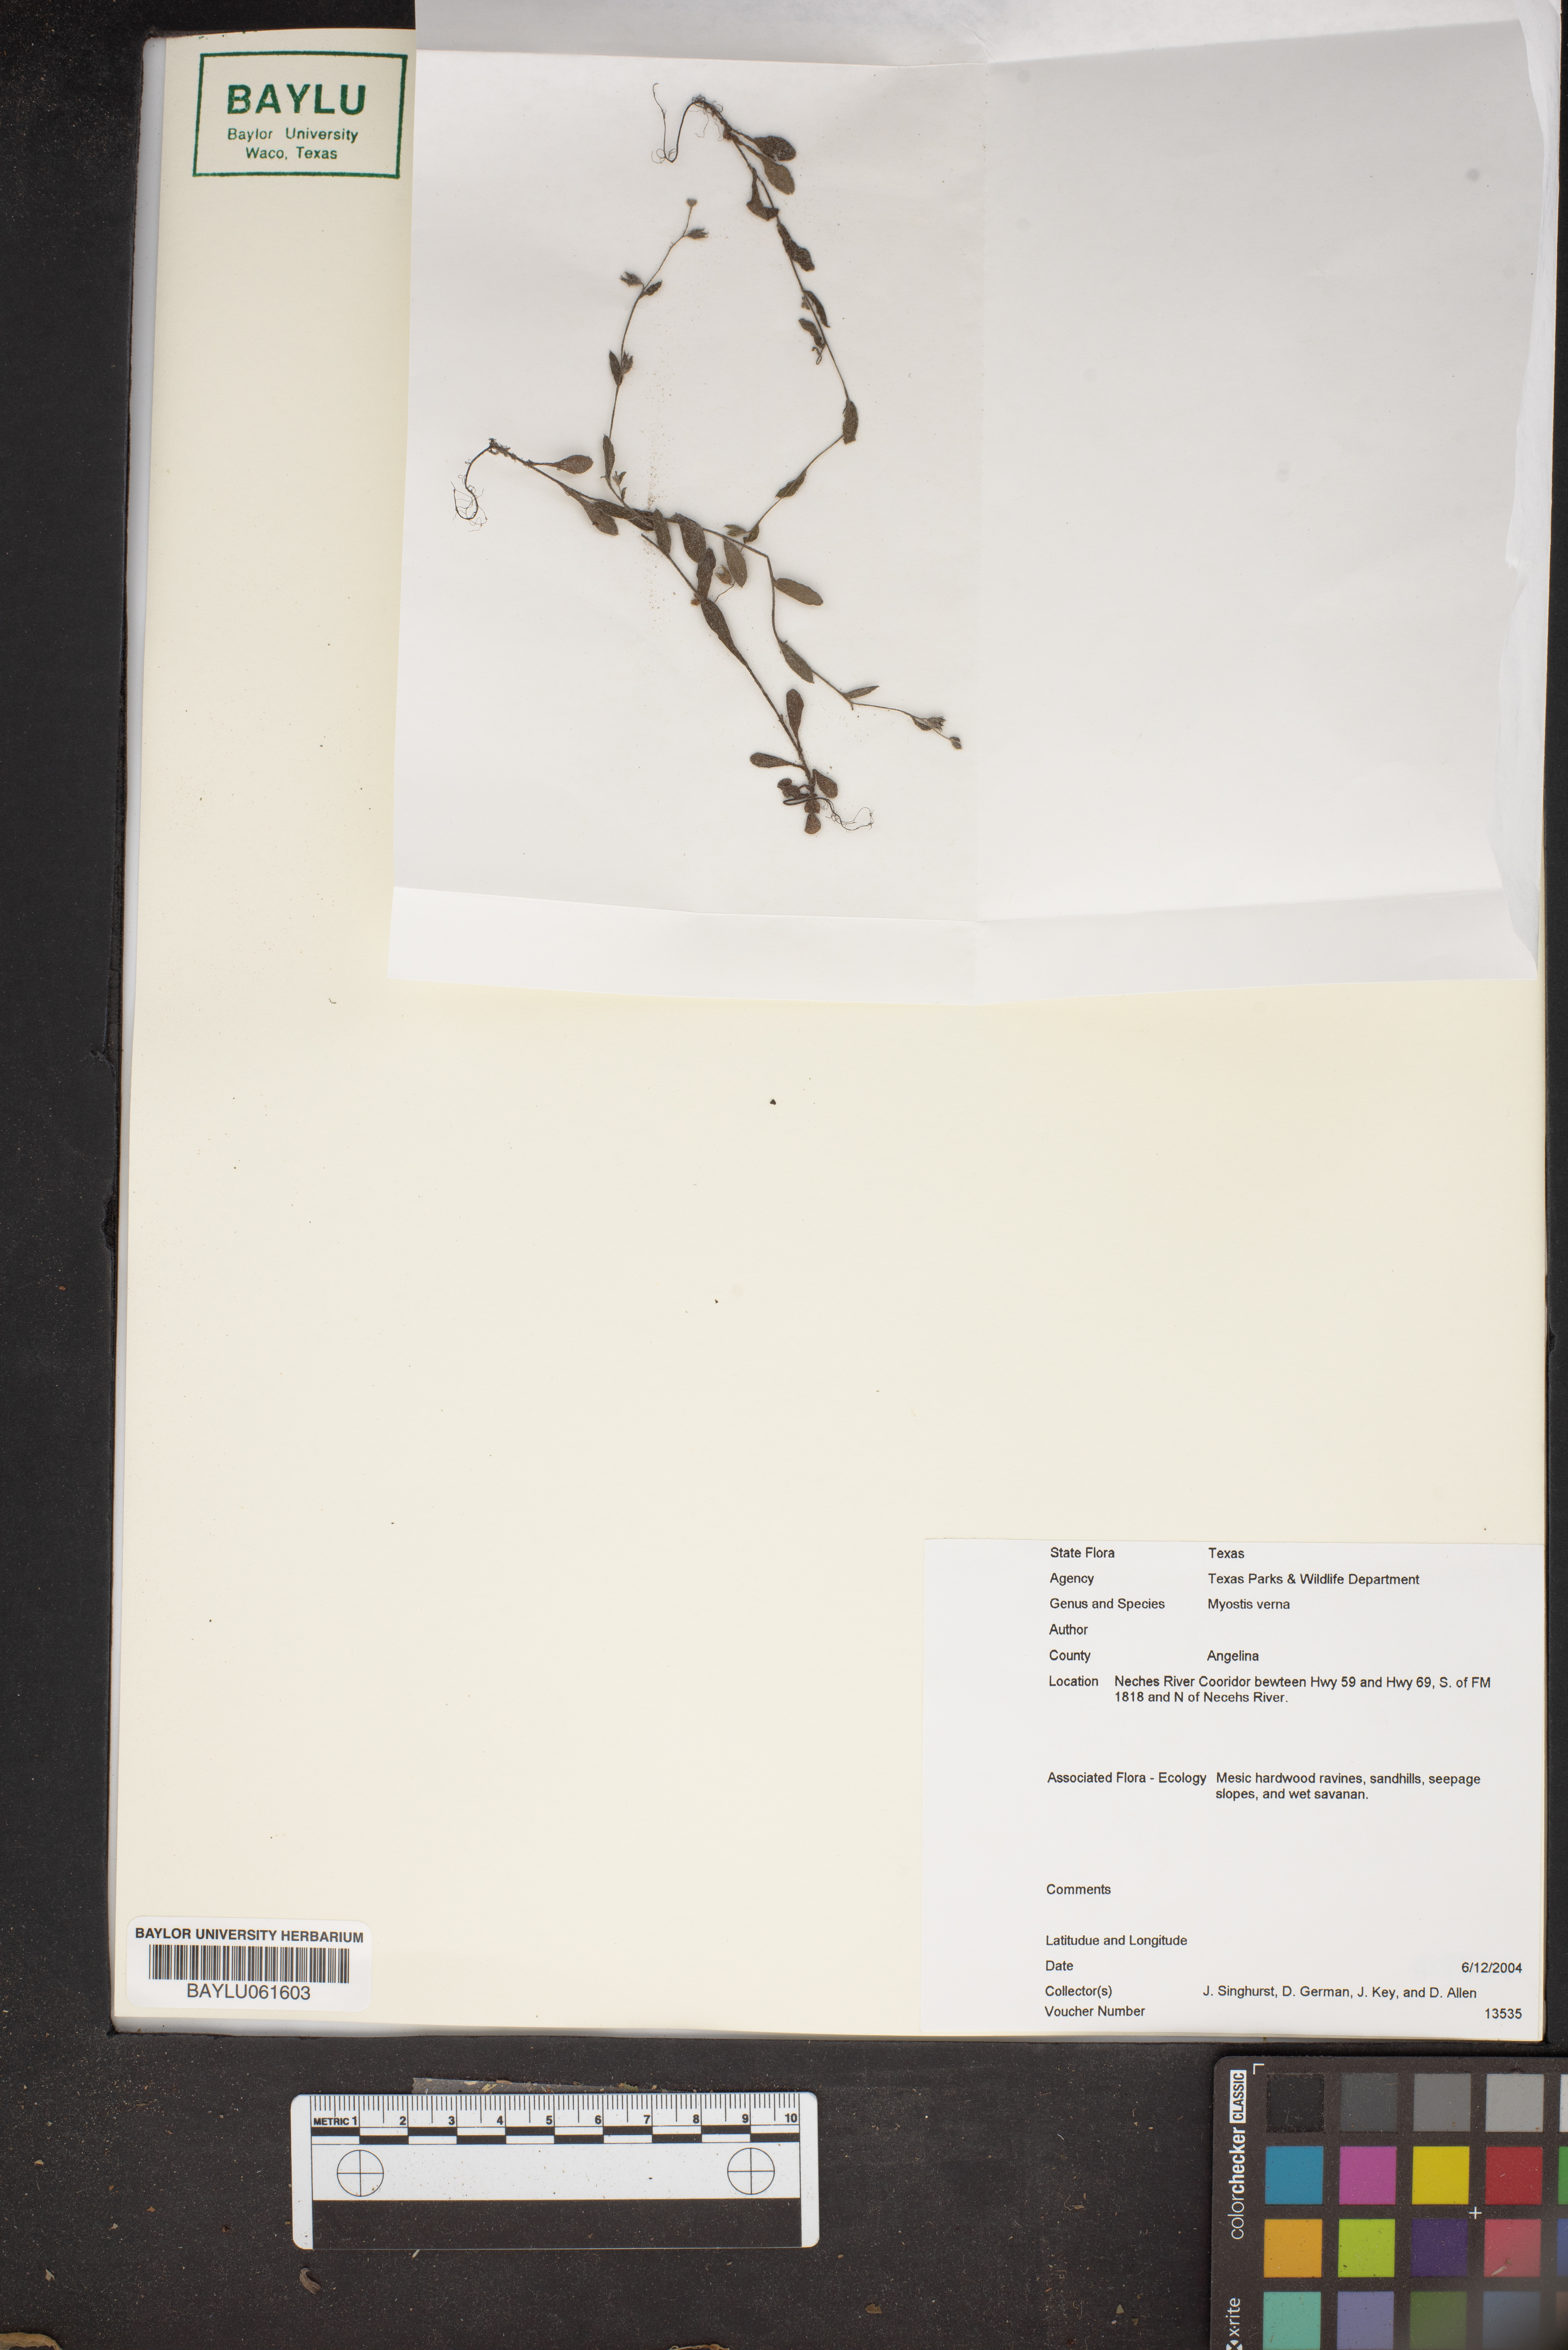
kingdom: Plantae
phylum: Tracheophyta
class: Magnoliopsida
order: Boraginales
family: Boraginaceae
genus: Myosotis
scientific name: Myosotis verna
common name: Early forget-me-not
